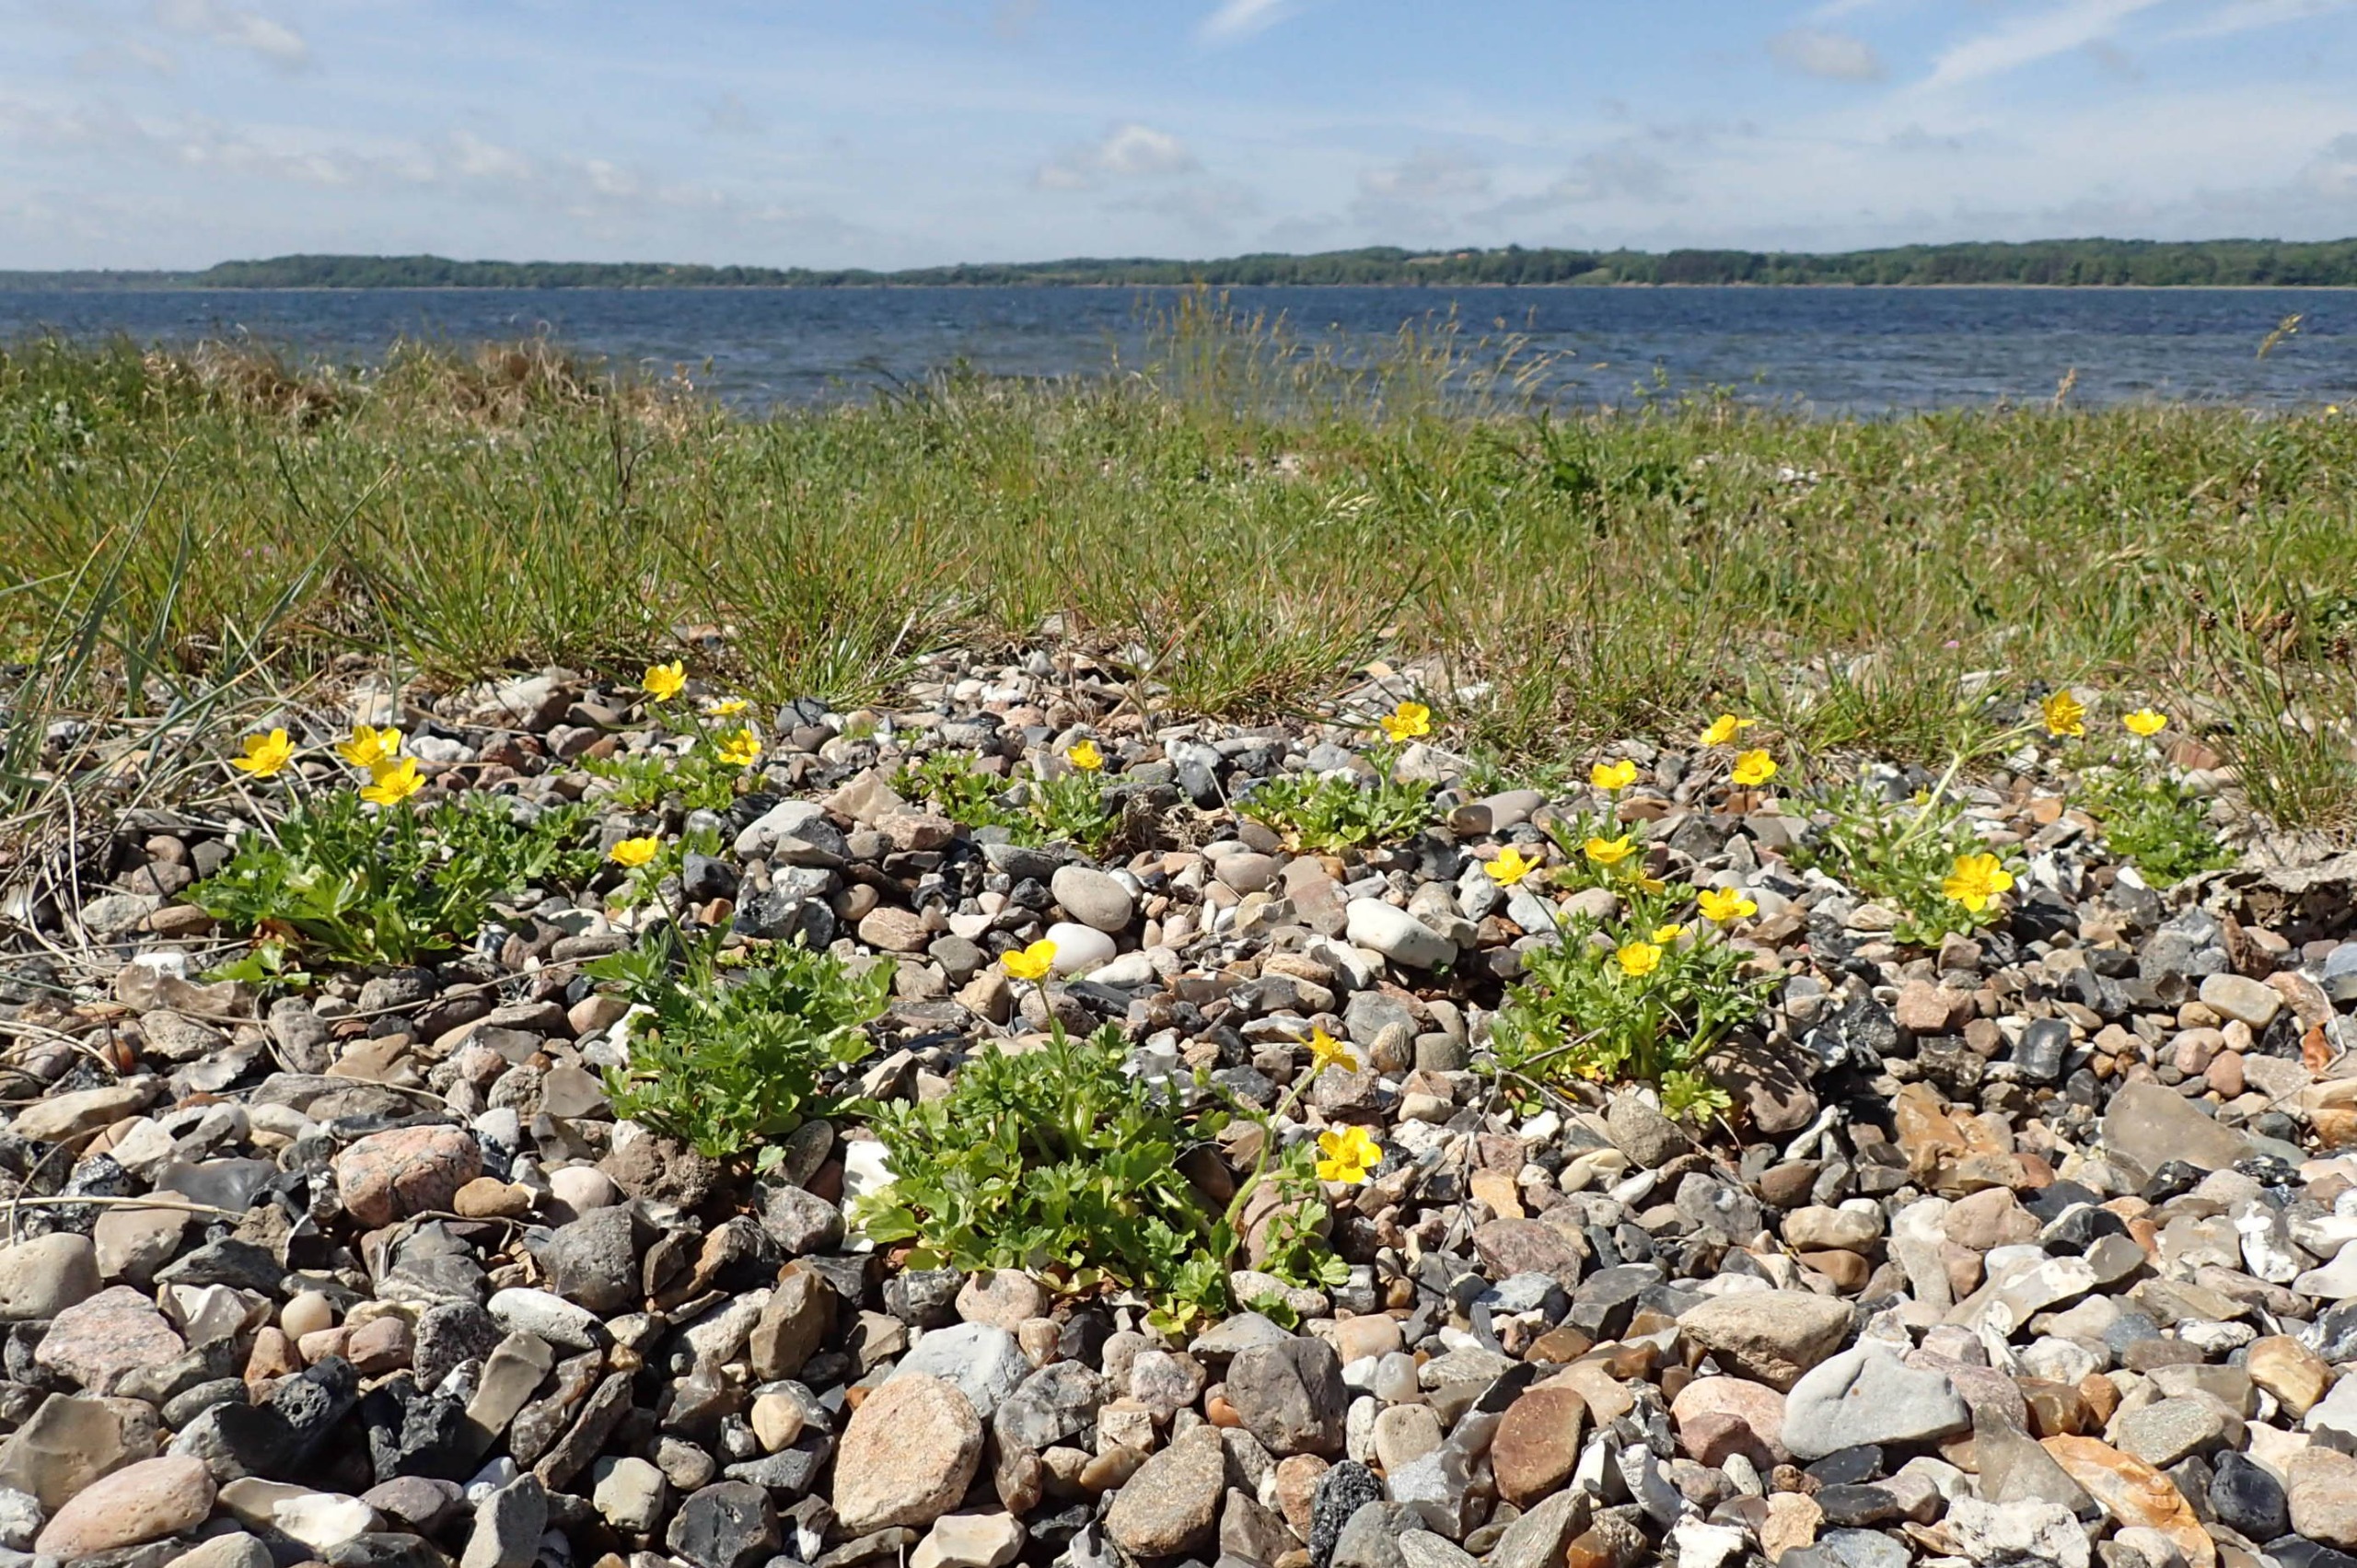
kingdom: Plantae
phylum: Tracheophyta
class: Magnoliopsida
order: Ranunculales
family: Ranunculaceae
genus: Ranunculus
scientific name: Ranunculus repens
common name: Lav ranunkel
